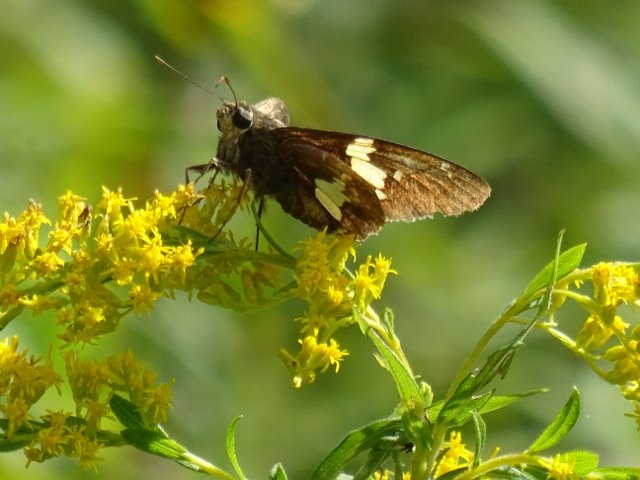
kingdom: Animalia
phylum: Arthropoda
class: Insecta
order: Lepidoptera
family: Hesperiidae
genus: Epargyreus
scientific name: Epargyreus clarus
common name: Silver-spotted Skipper
